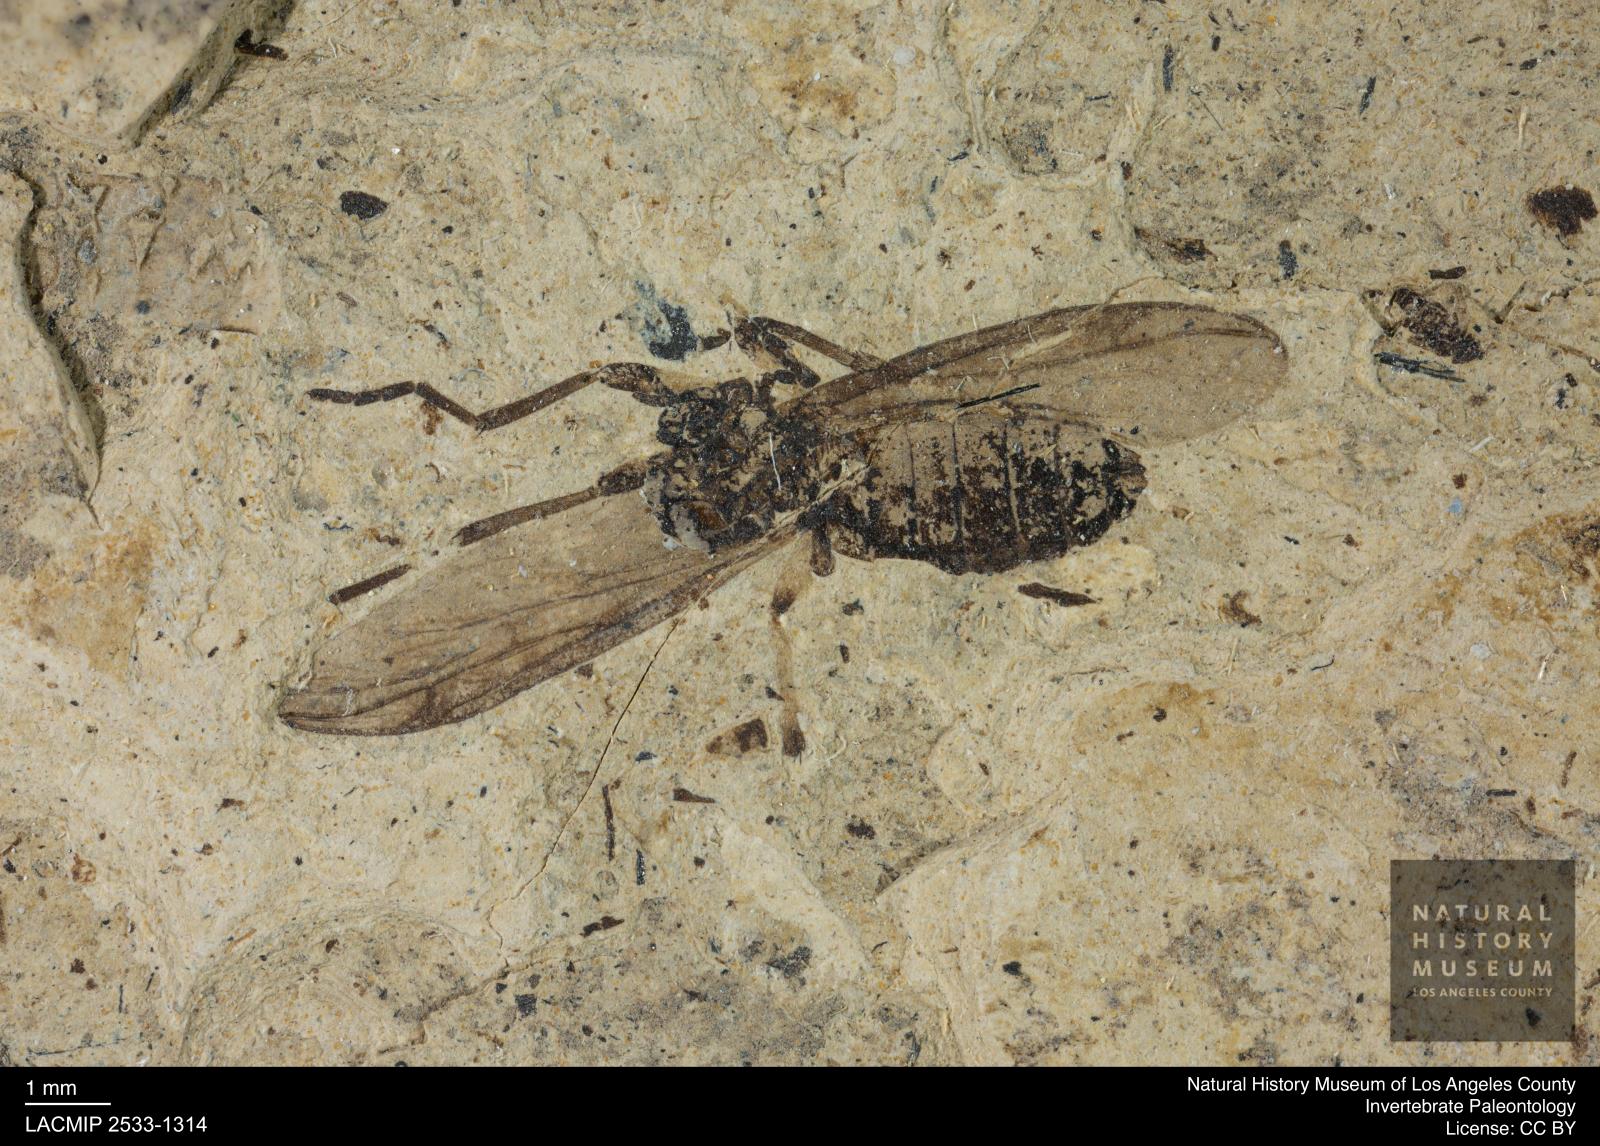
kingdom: Animalia
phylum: Arthropoda
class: Insecta
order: Diptera
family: Bibionidae
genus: Plecia
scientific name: Plecia stygia
